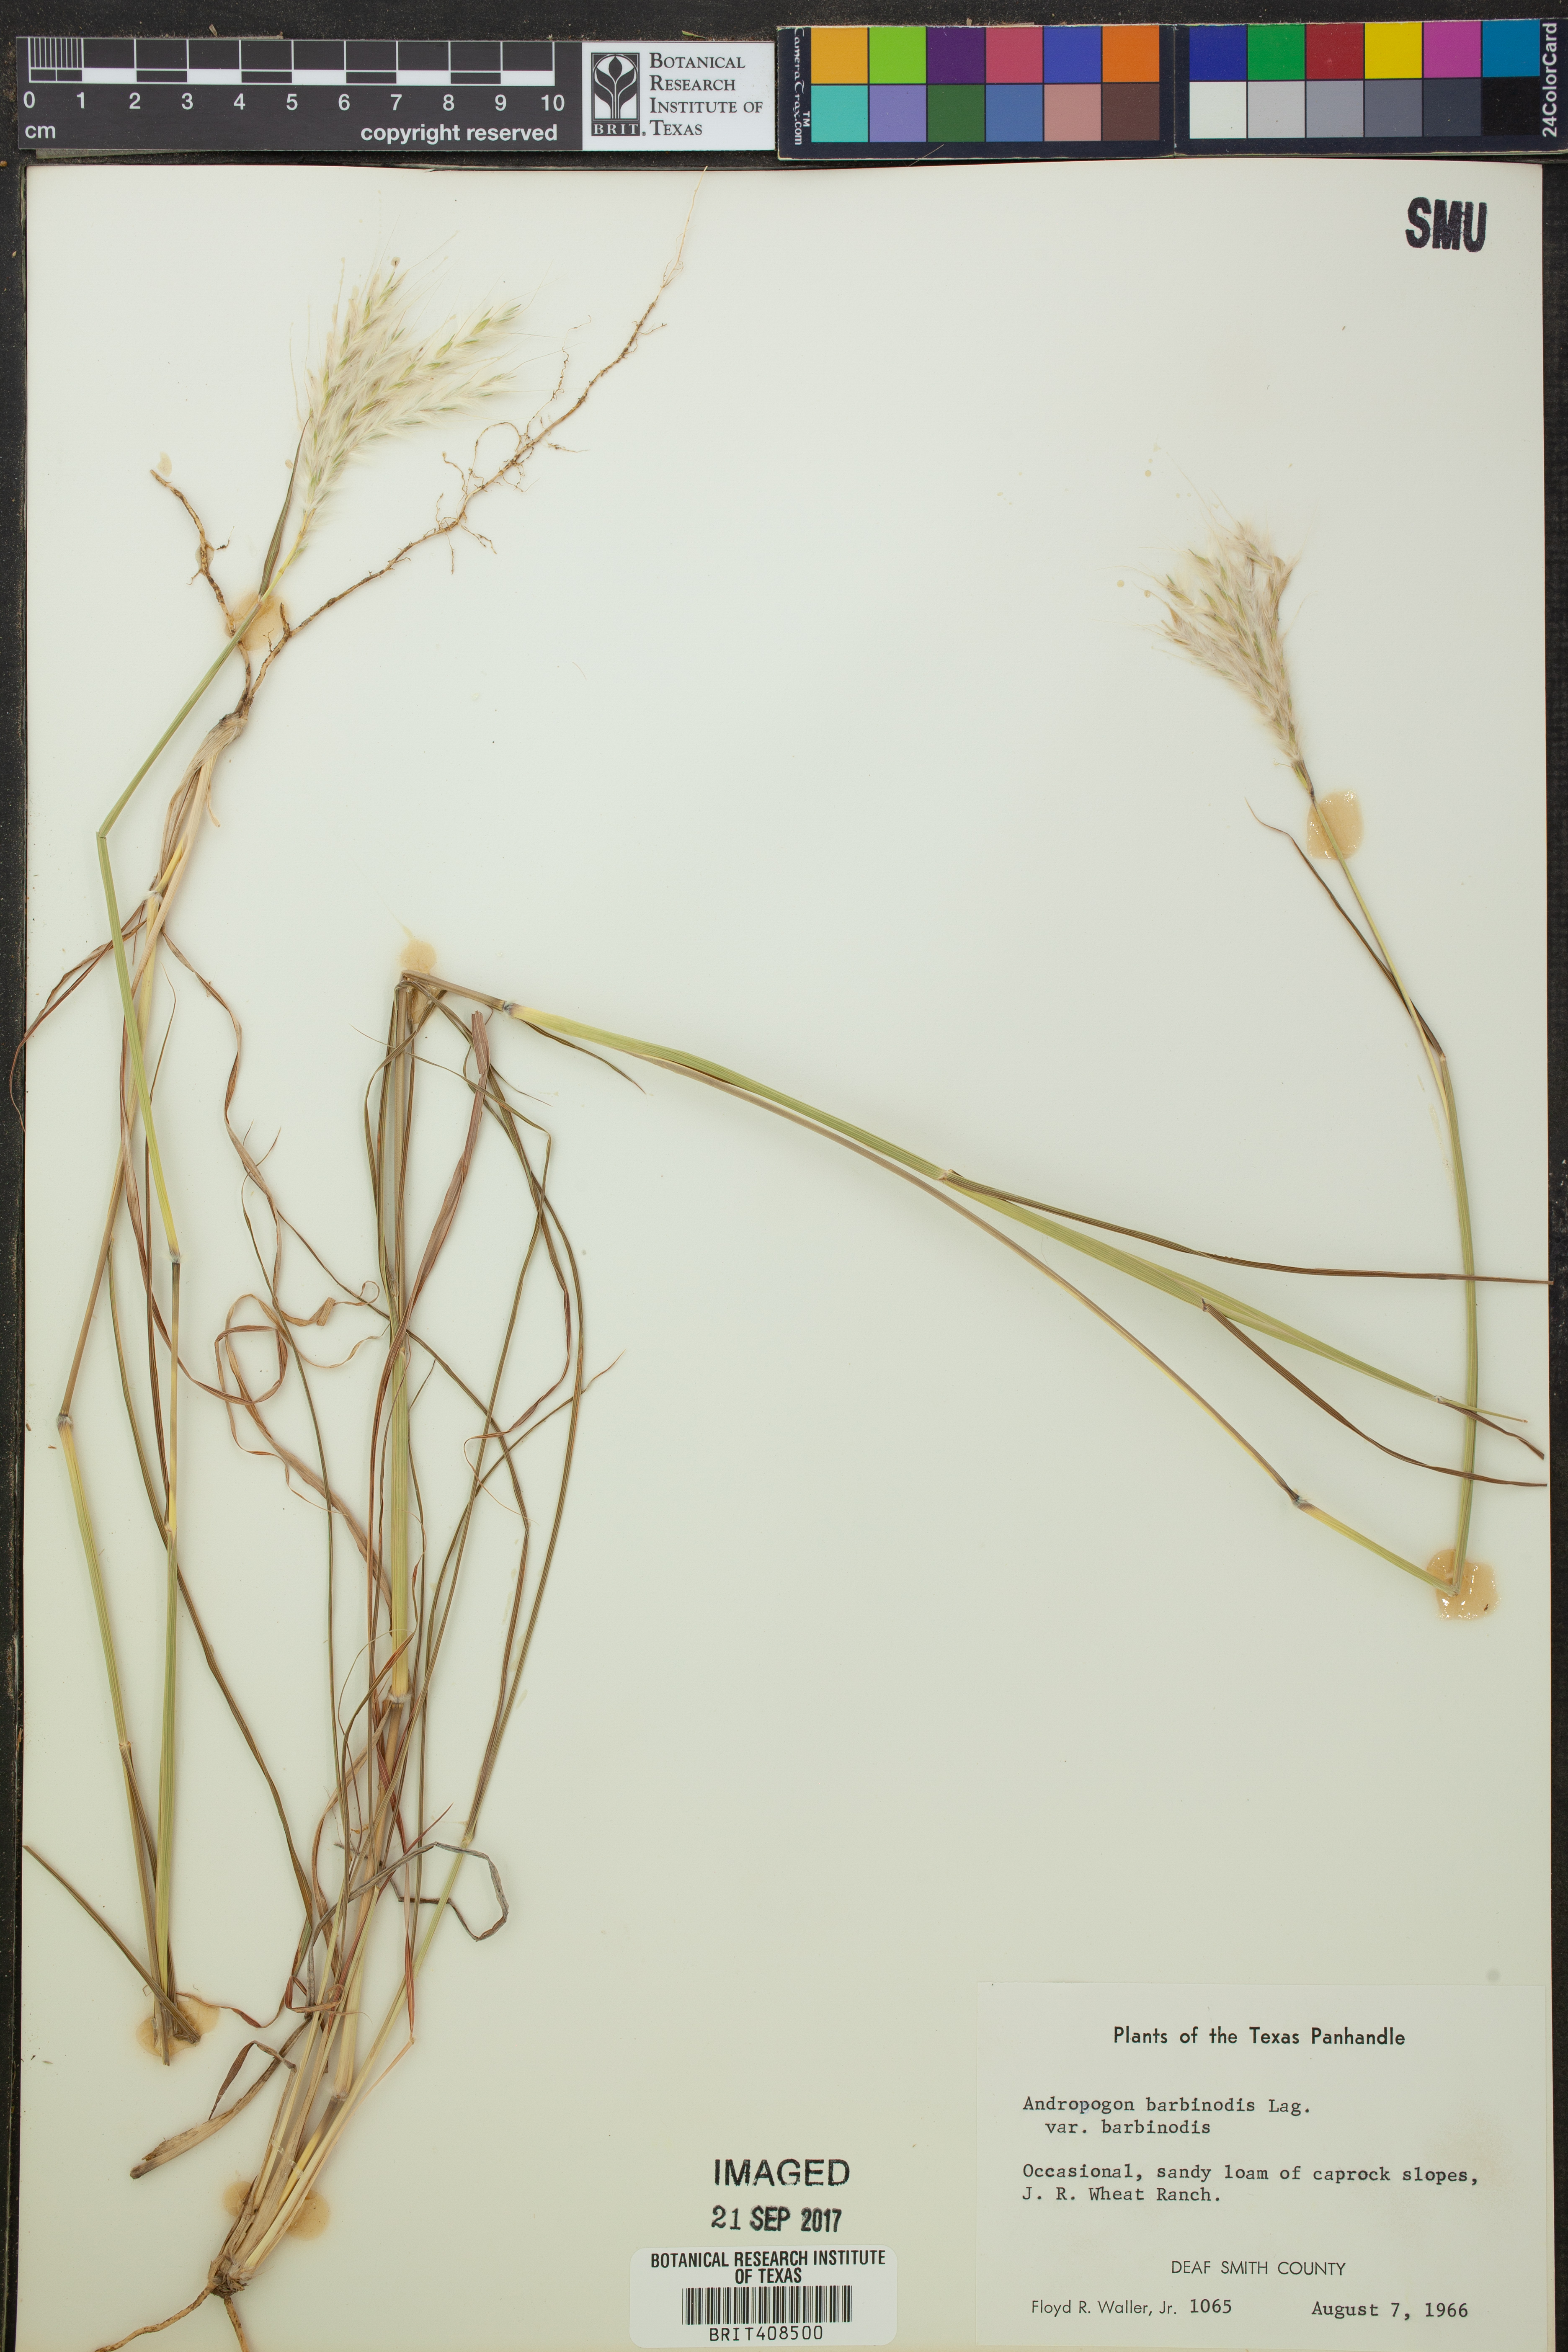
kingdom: Plantae
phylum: Tracheophyta
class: Liliopsida
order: Poales
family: Poaceae
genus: Bothriochloa
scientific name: Bothriochloa barbinodis
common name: Cane bluestem
